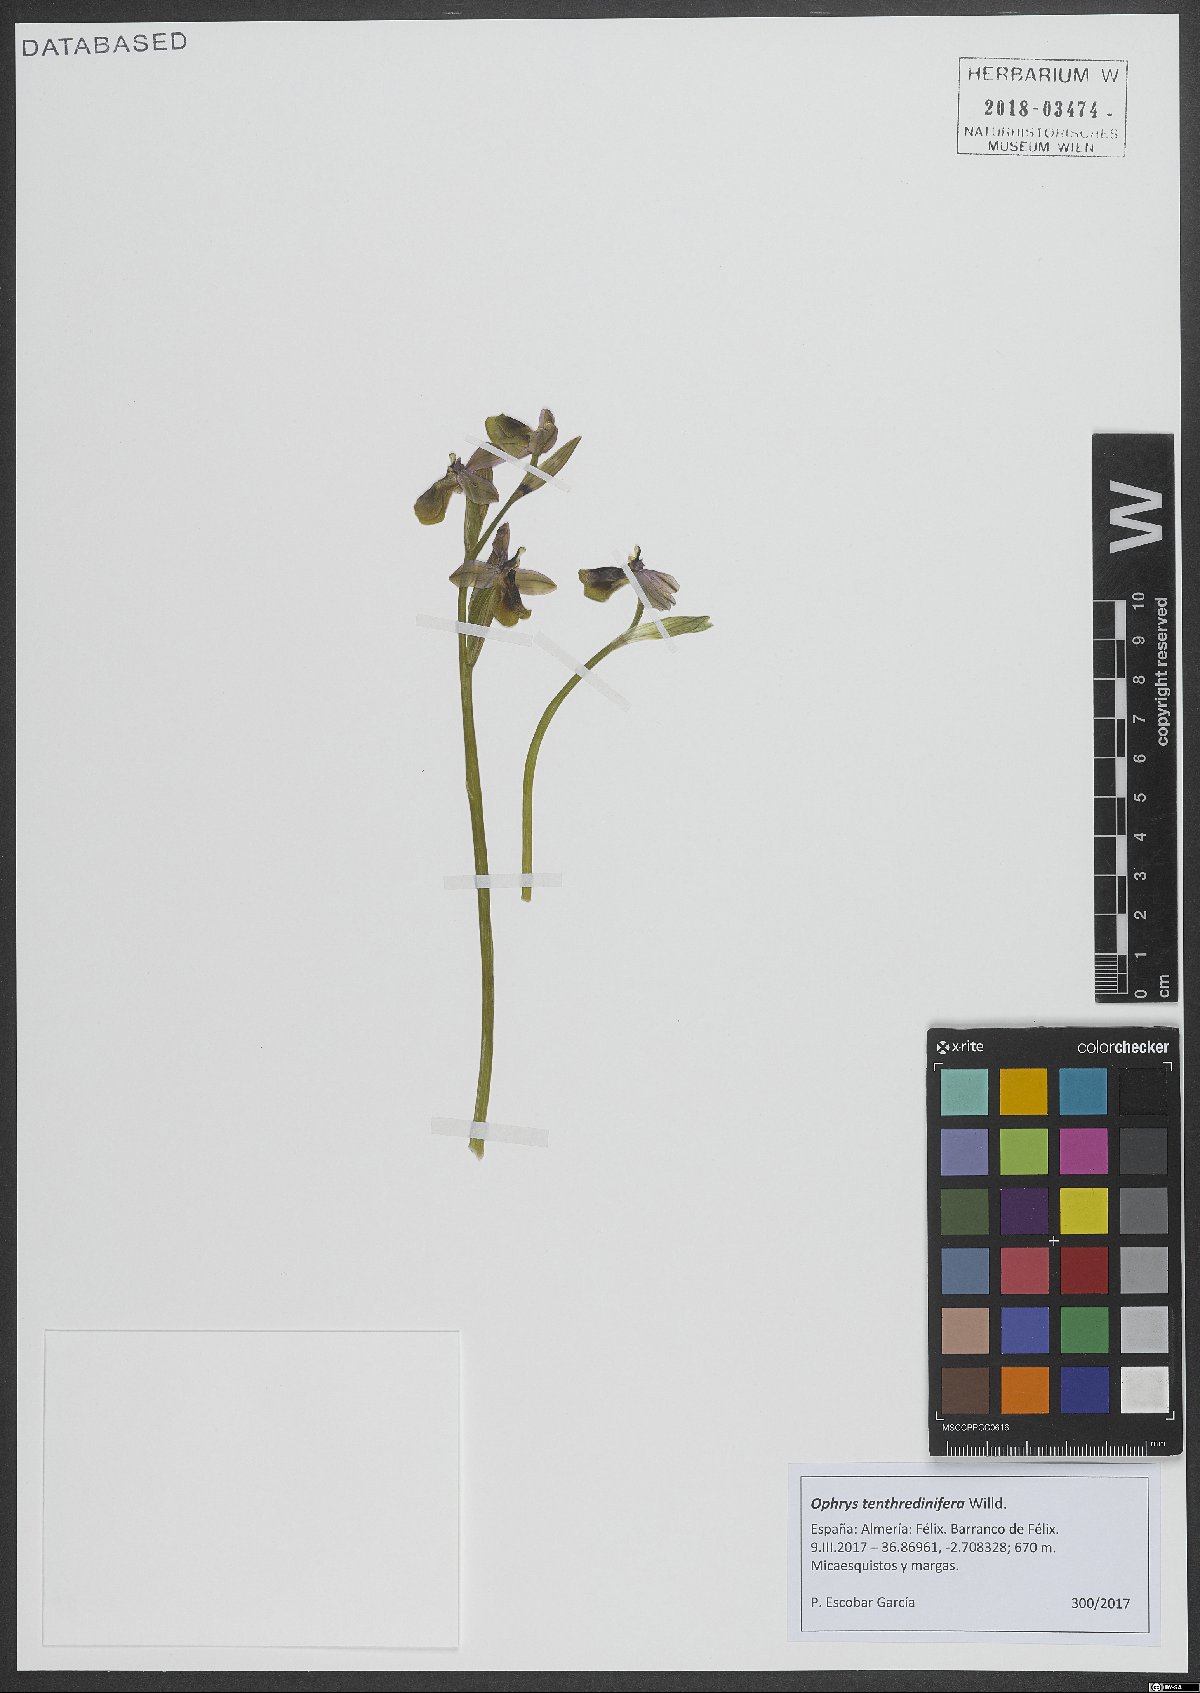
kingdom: Plantae
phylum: Tracheophyta
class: Liliopsida
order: Asparagales
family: Orchidaceae
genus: Ophrys
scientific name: Ophrys tenthredinifera
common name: Sawfly orchid
